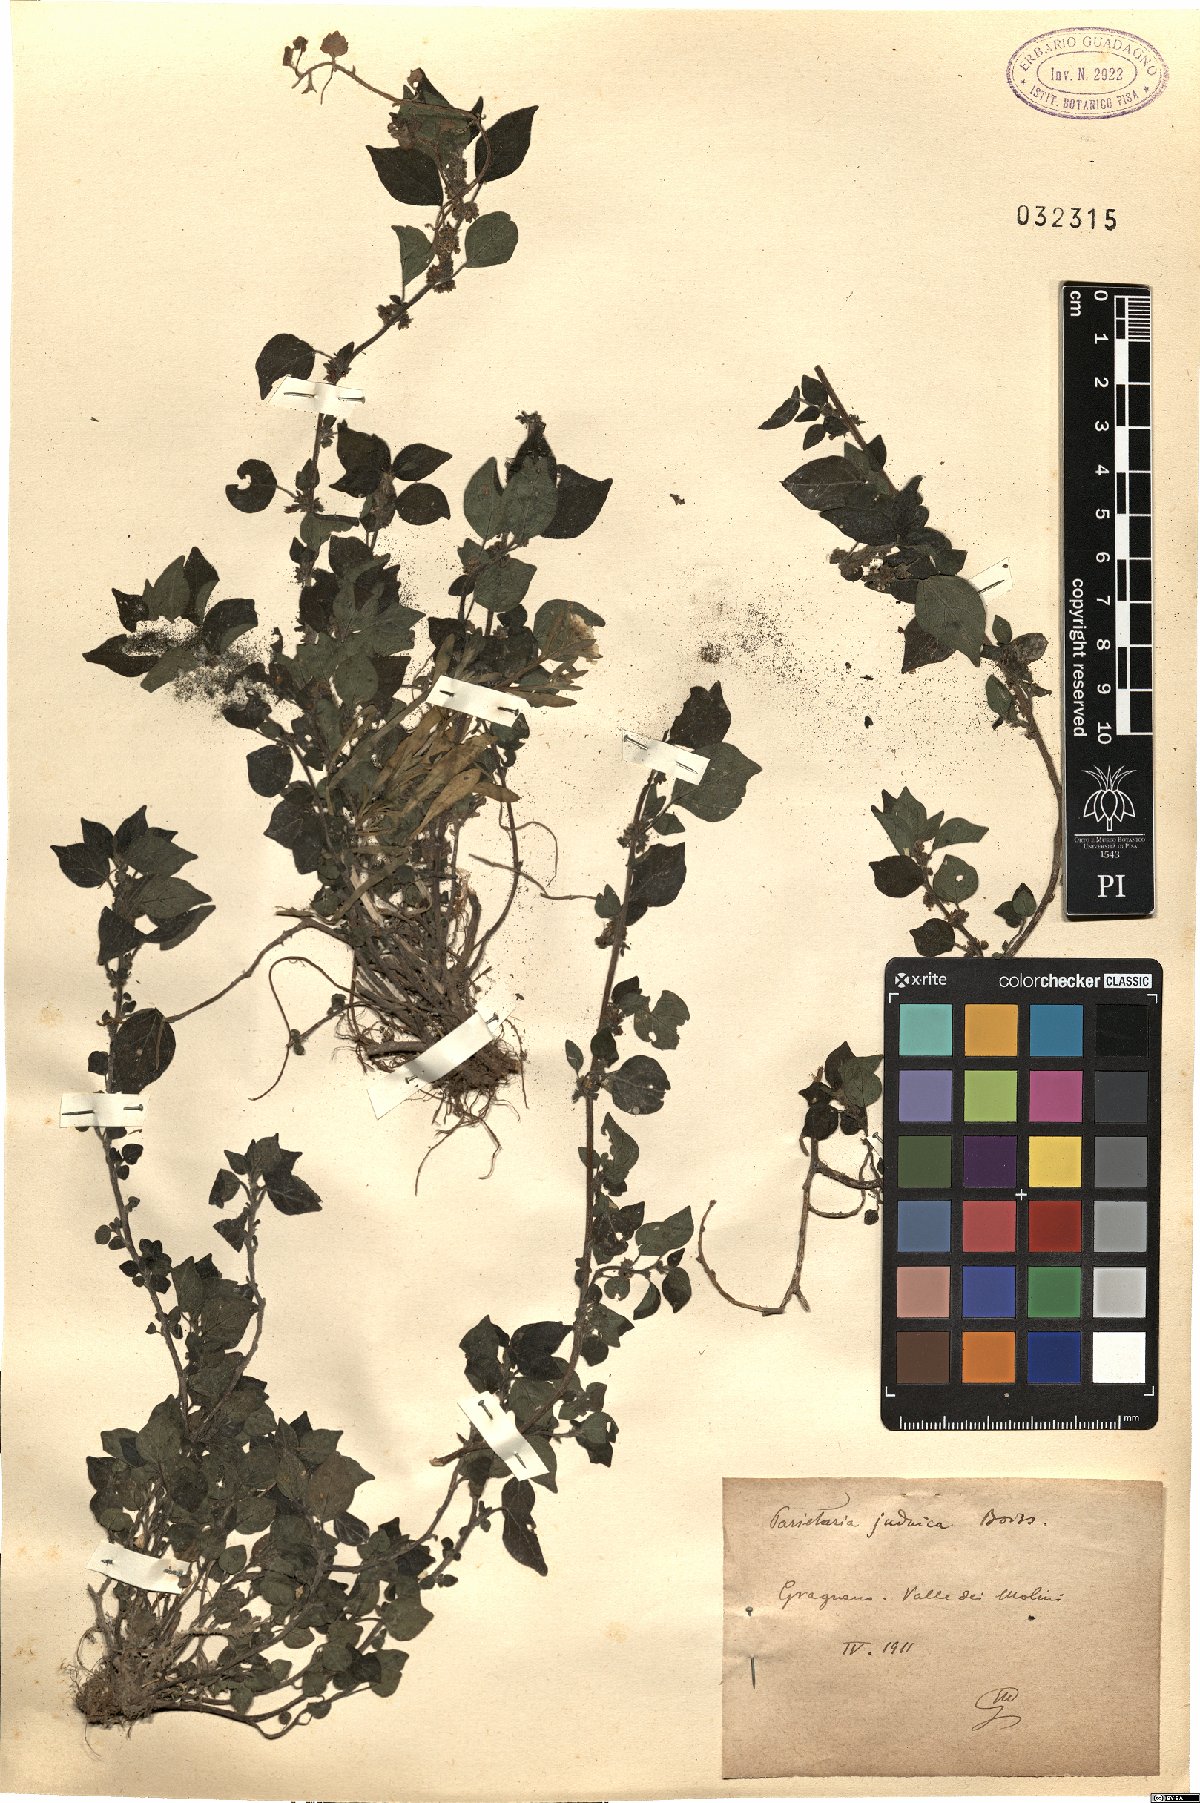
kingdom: Plantae
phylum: Tracheophyta
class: Magnoliopsida
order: Rosales
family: Urticaceae
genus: Parietaria
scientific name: Parietaria judaica
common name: Pellitory-of-the-wall
